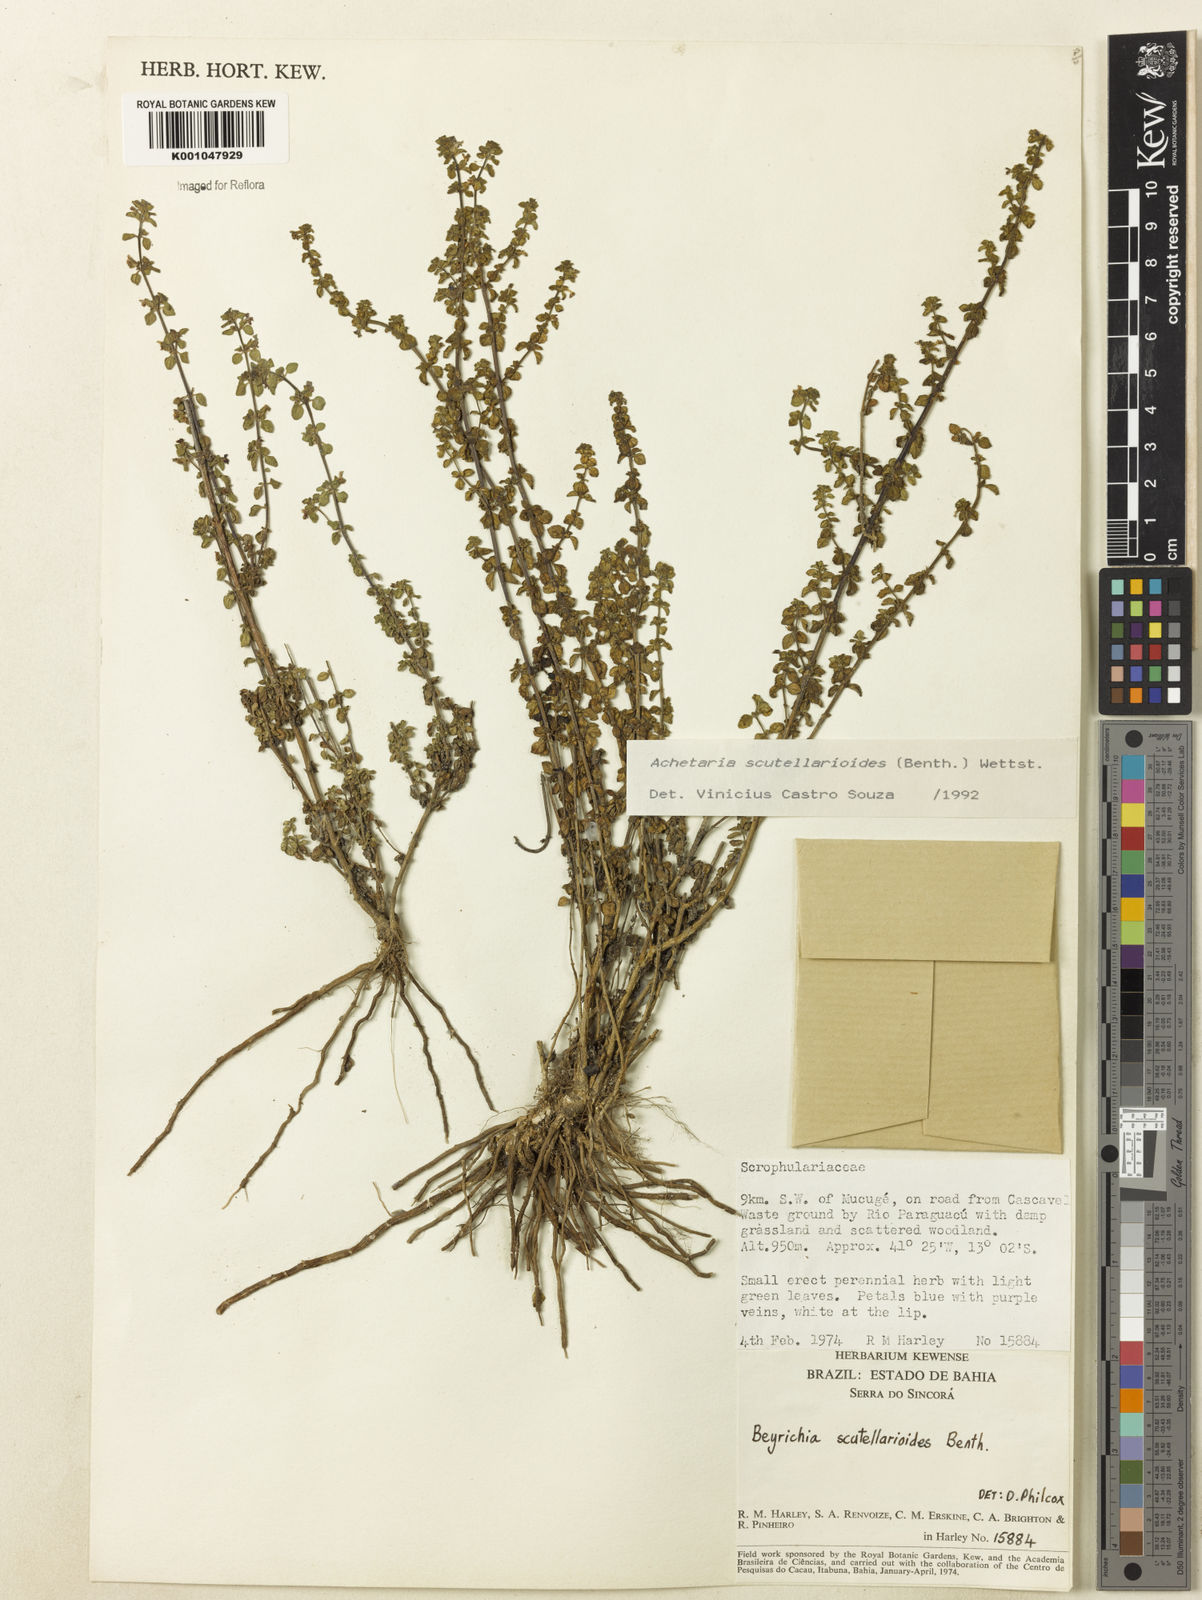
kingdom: Plantae
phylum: Tracheophyta
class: Magnoliopsida
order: Lamiales
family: Plantaginaceae
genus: Matourea
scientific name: Matourea scutellarioides
